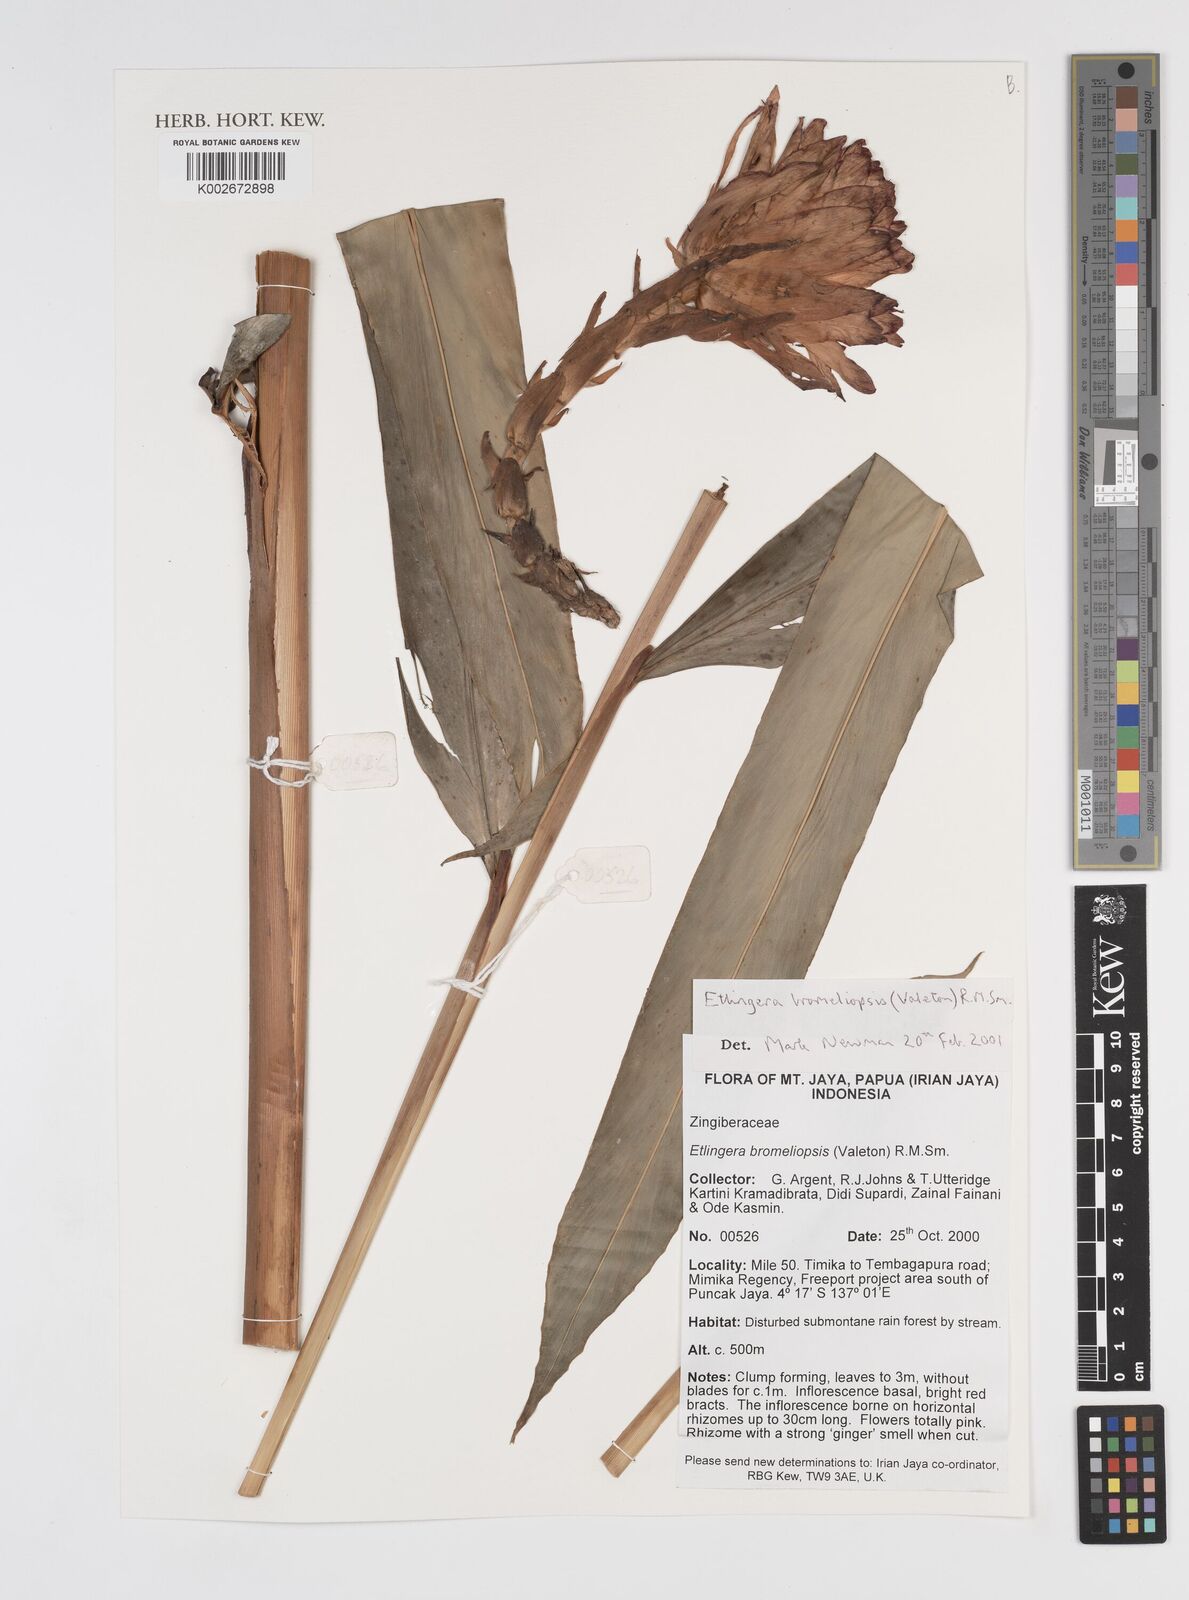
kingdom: Plantae
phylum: Tracheophyta
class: Liliopsida
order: Zingiberales
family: Zingiberaceae
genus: Etlingera
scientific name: Etlingera bromeliopsis
